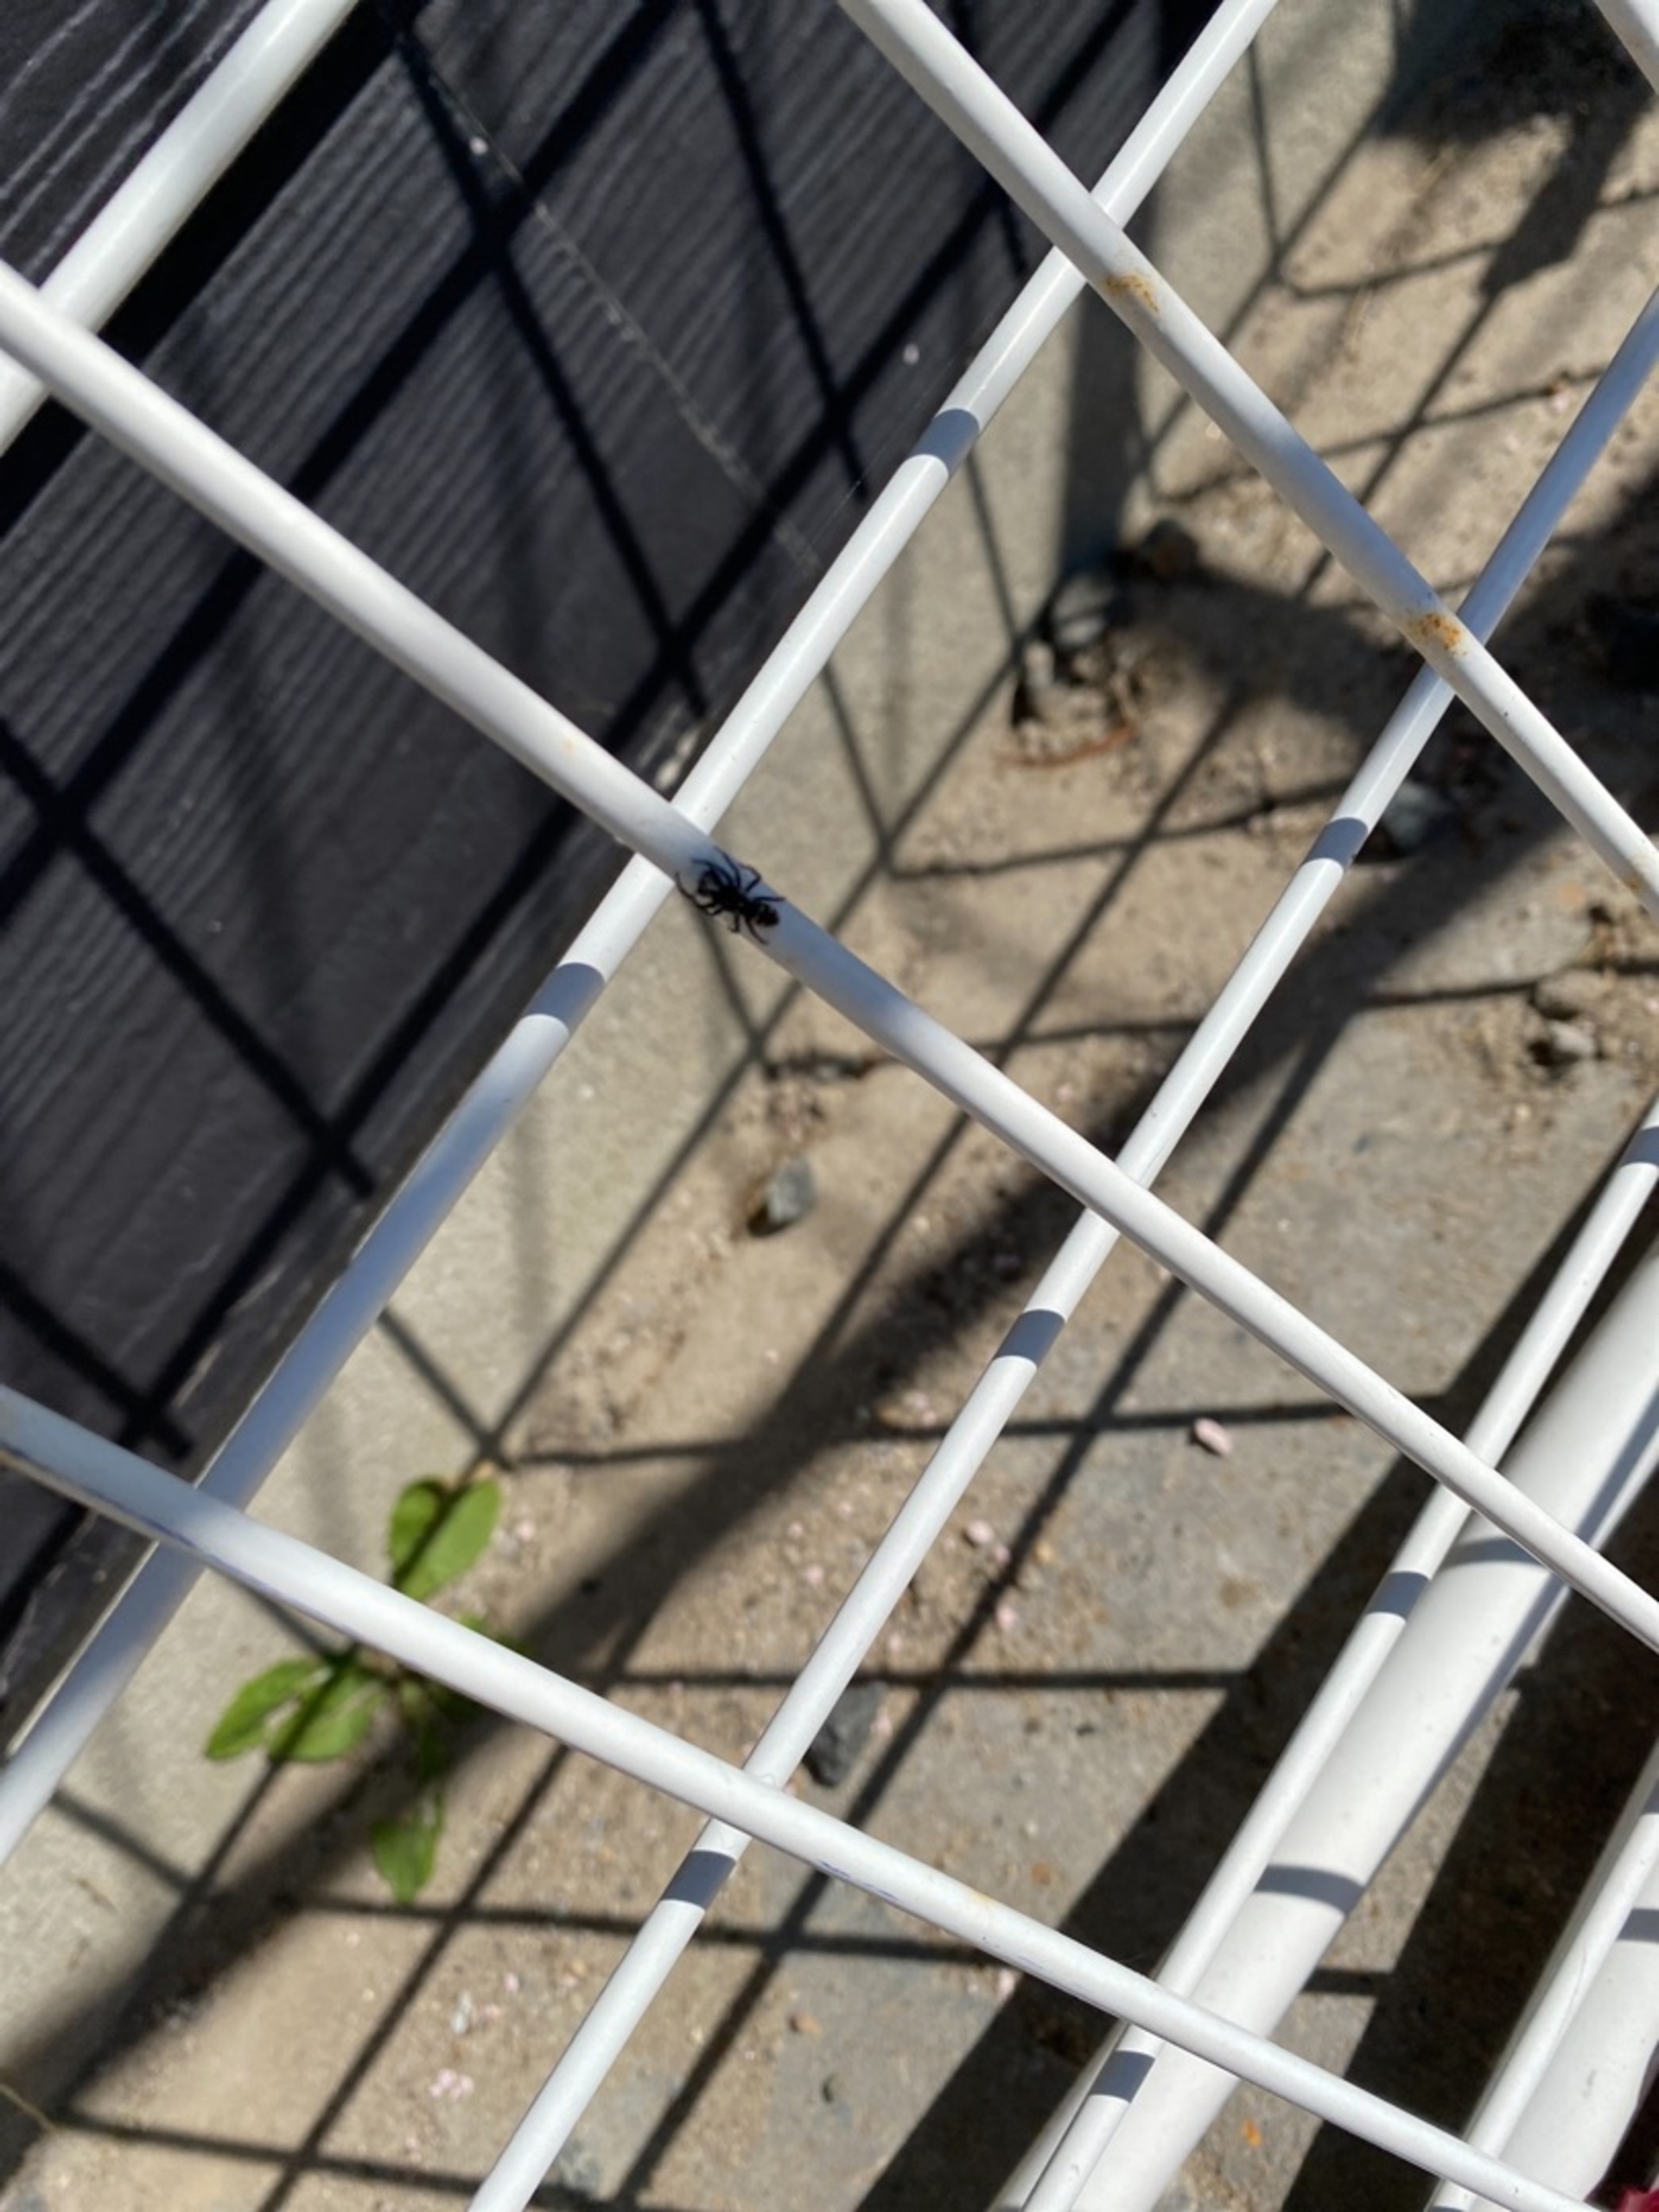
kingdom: Animalia
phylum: Arthropoda
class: Arachnida
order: Araneae
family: Salticidae
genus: Salticus
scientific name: Salticus scenicus
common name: Almindelig zebraedderkop
